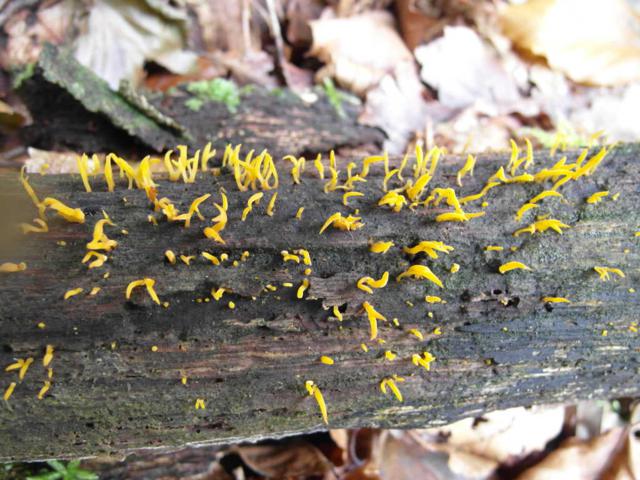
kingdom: Fungi
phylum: Basidiomycota
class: Dacrymycetes
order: Dacrymycetales
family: Dacrymycetaceae
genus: Calocera
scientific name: Calocera cornea
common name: liden guldgaffel
